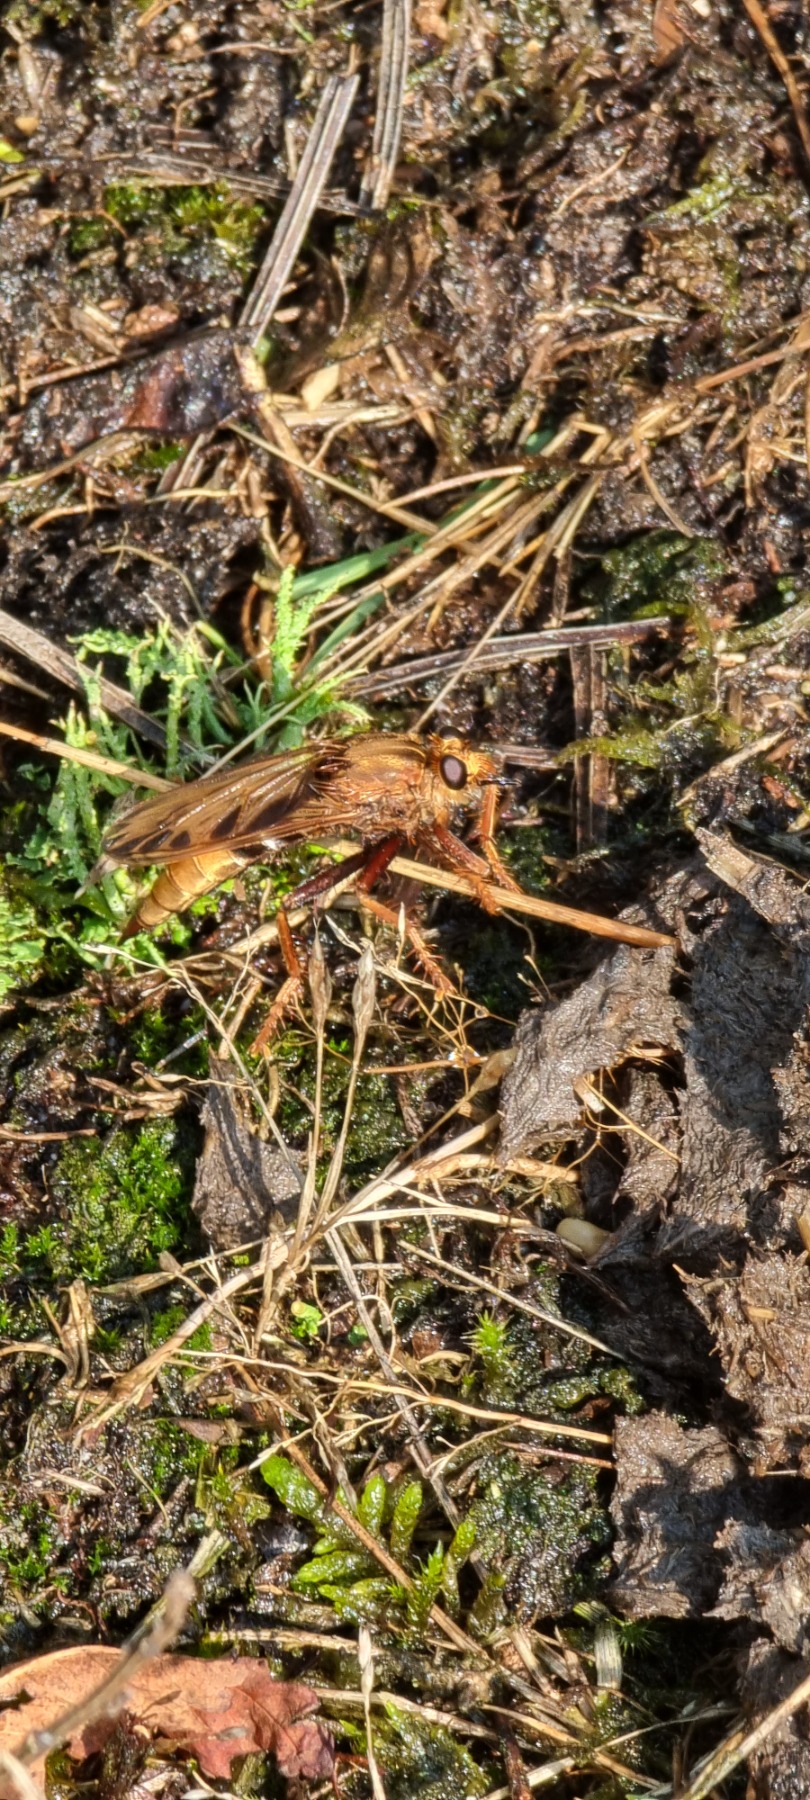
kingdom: Animalia
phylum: Arthropoda
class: Insecta
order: Diptera
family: Asilidae
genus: Asilus
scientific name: Asilus crabroniformis
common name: Stor gødningsrovflue
